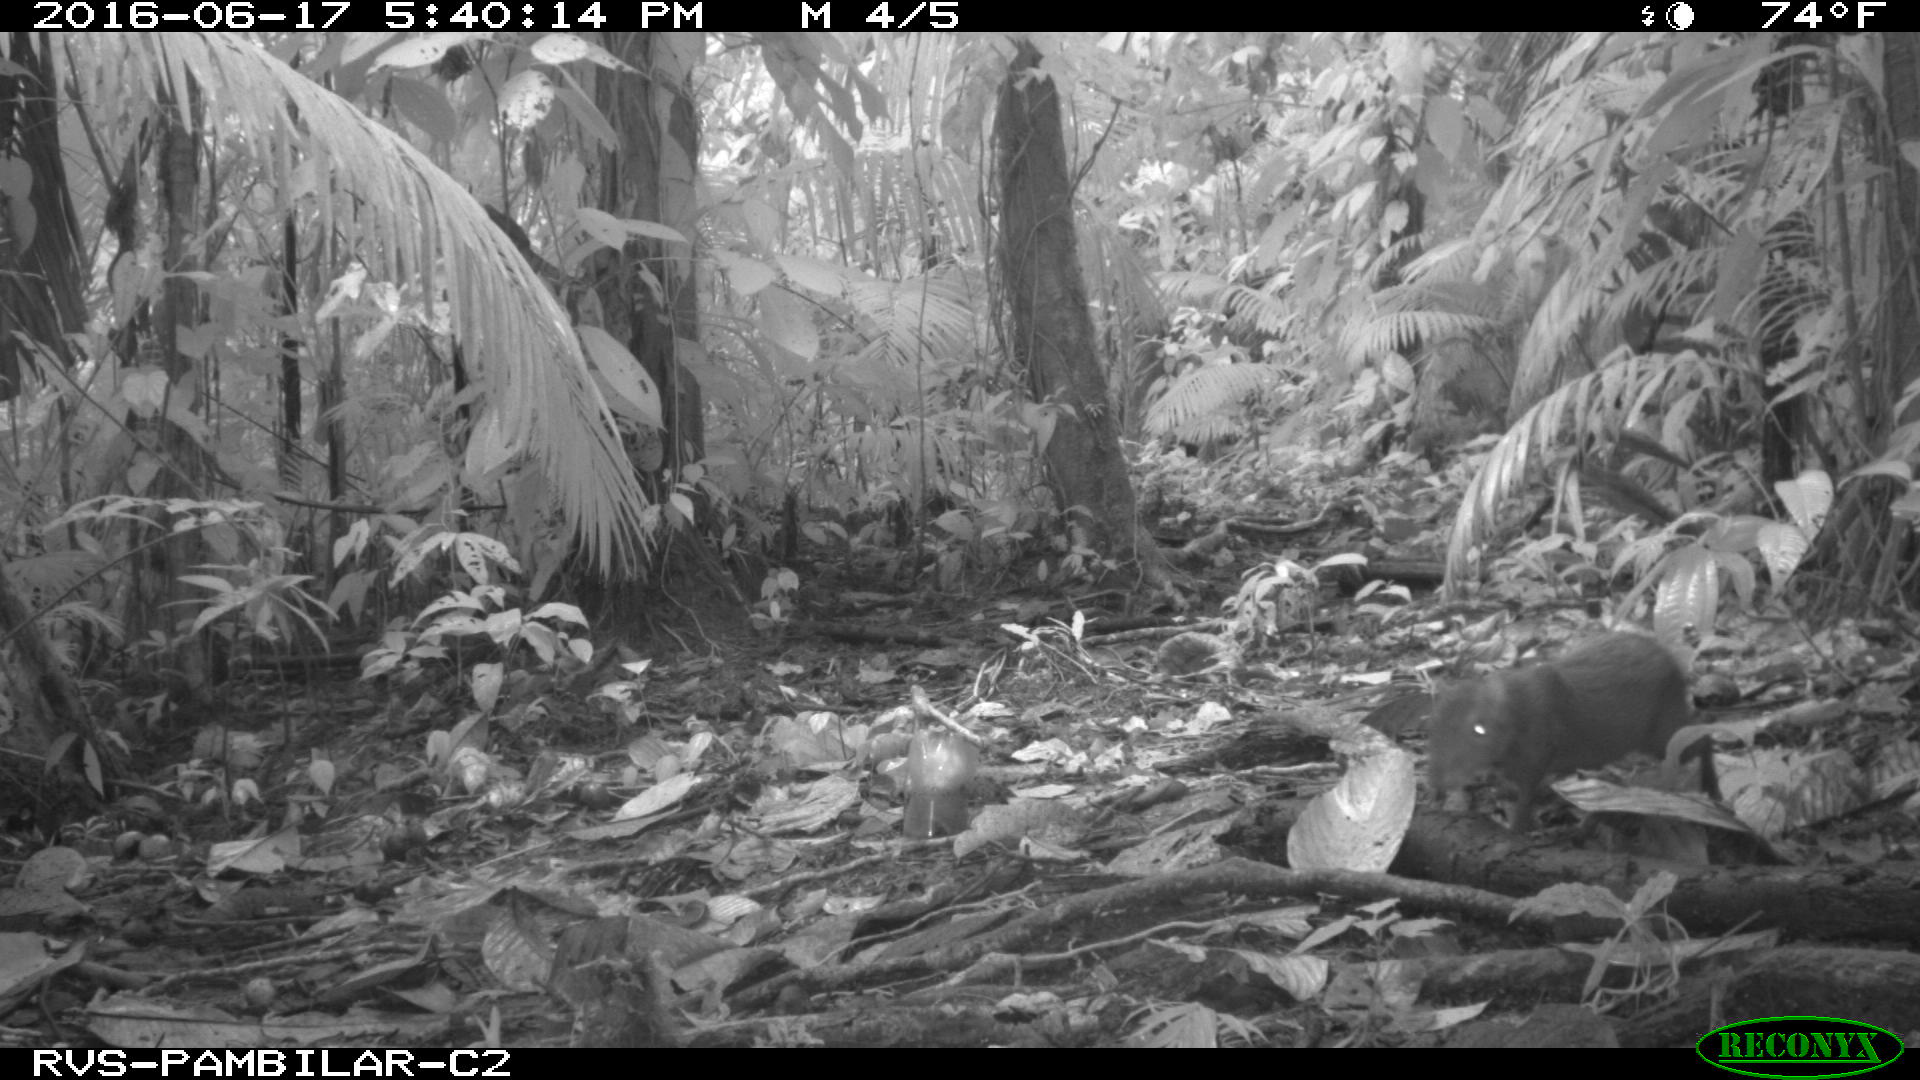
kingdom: Animalia
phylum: Chordata
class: Mammalia
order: Rodentia
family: Dasyproctidae
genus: Dasyprocta
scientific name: Dasyprocta punctata
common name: Central american agouti
